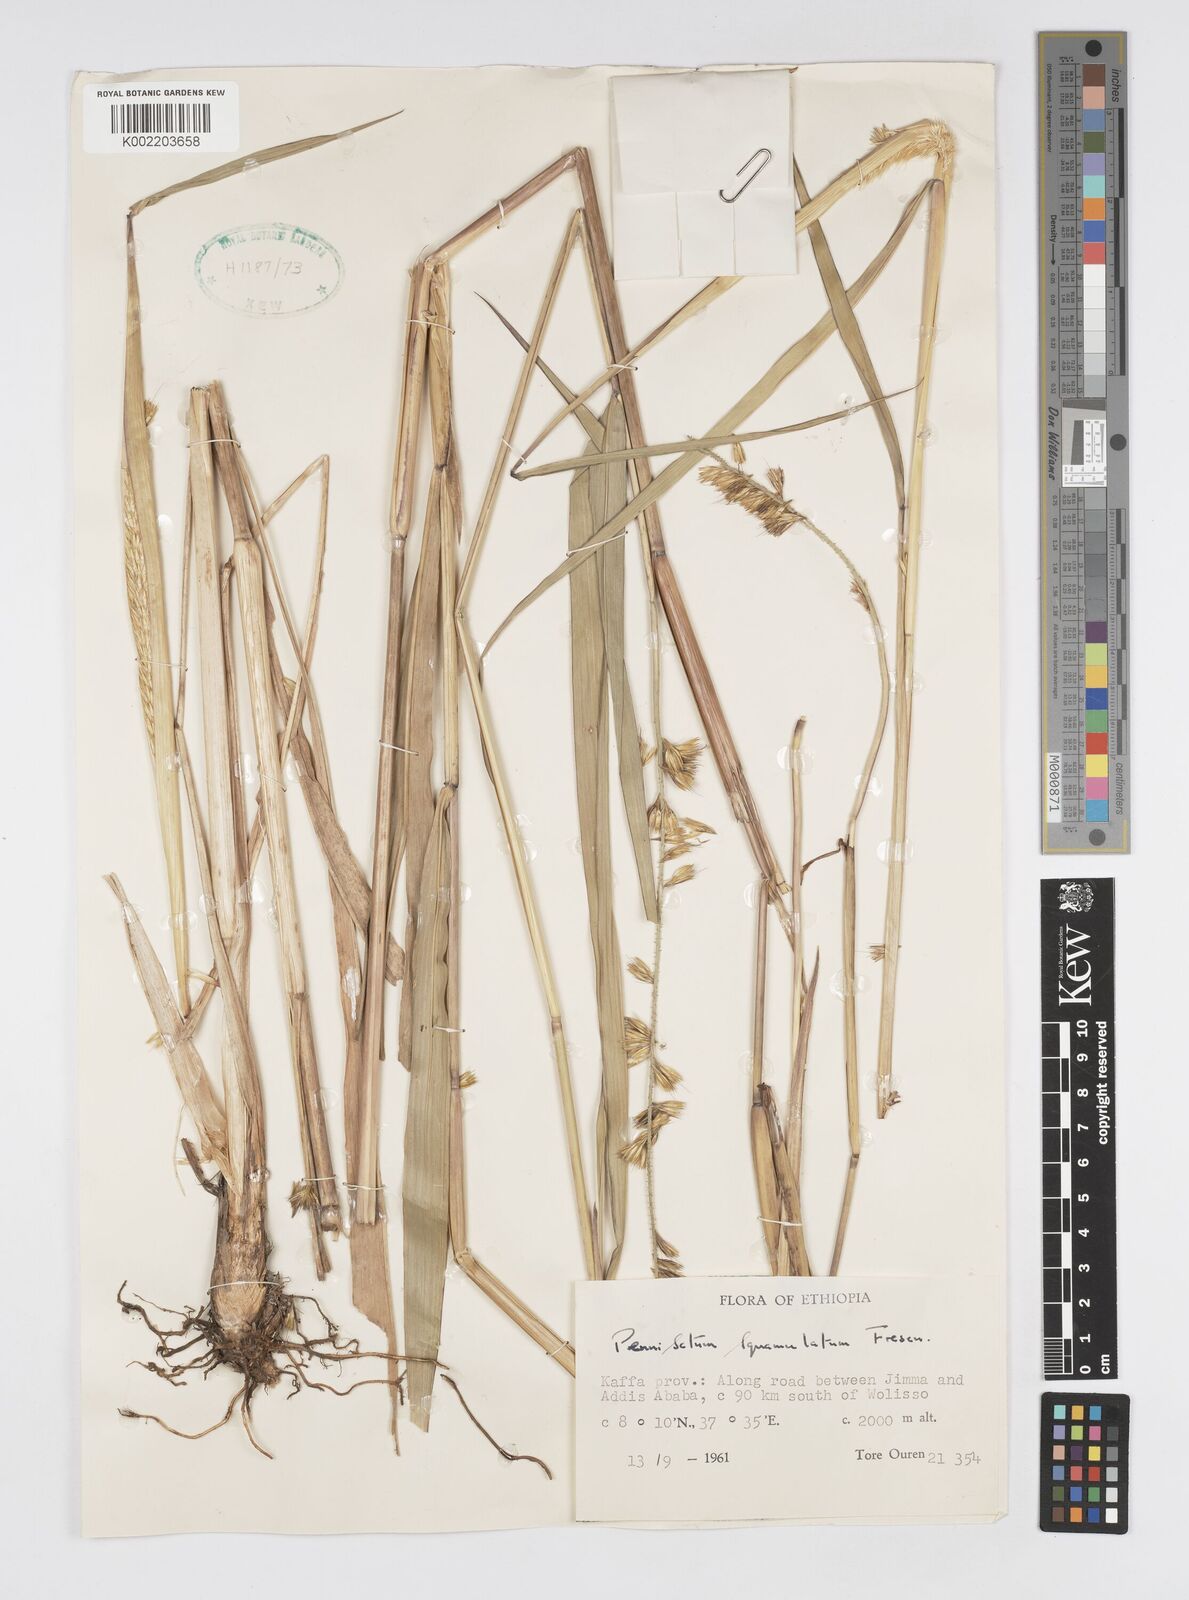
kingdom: Plantae
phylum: Tracheophyta
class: Liliopsida
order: Poales
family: Poaceae
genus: Cenchrus
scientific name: Cenchrus squamulatus
